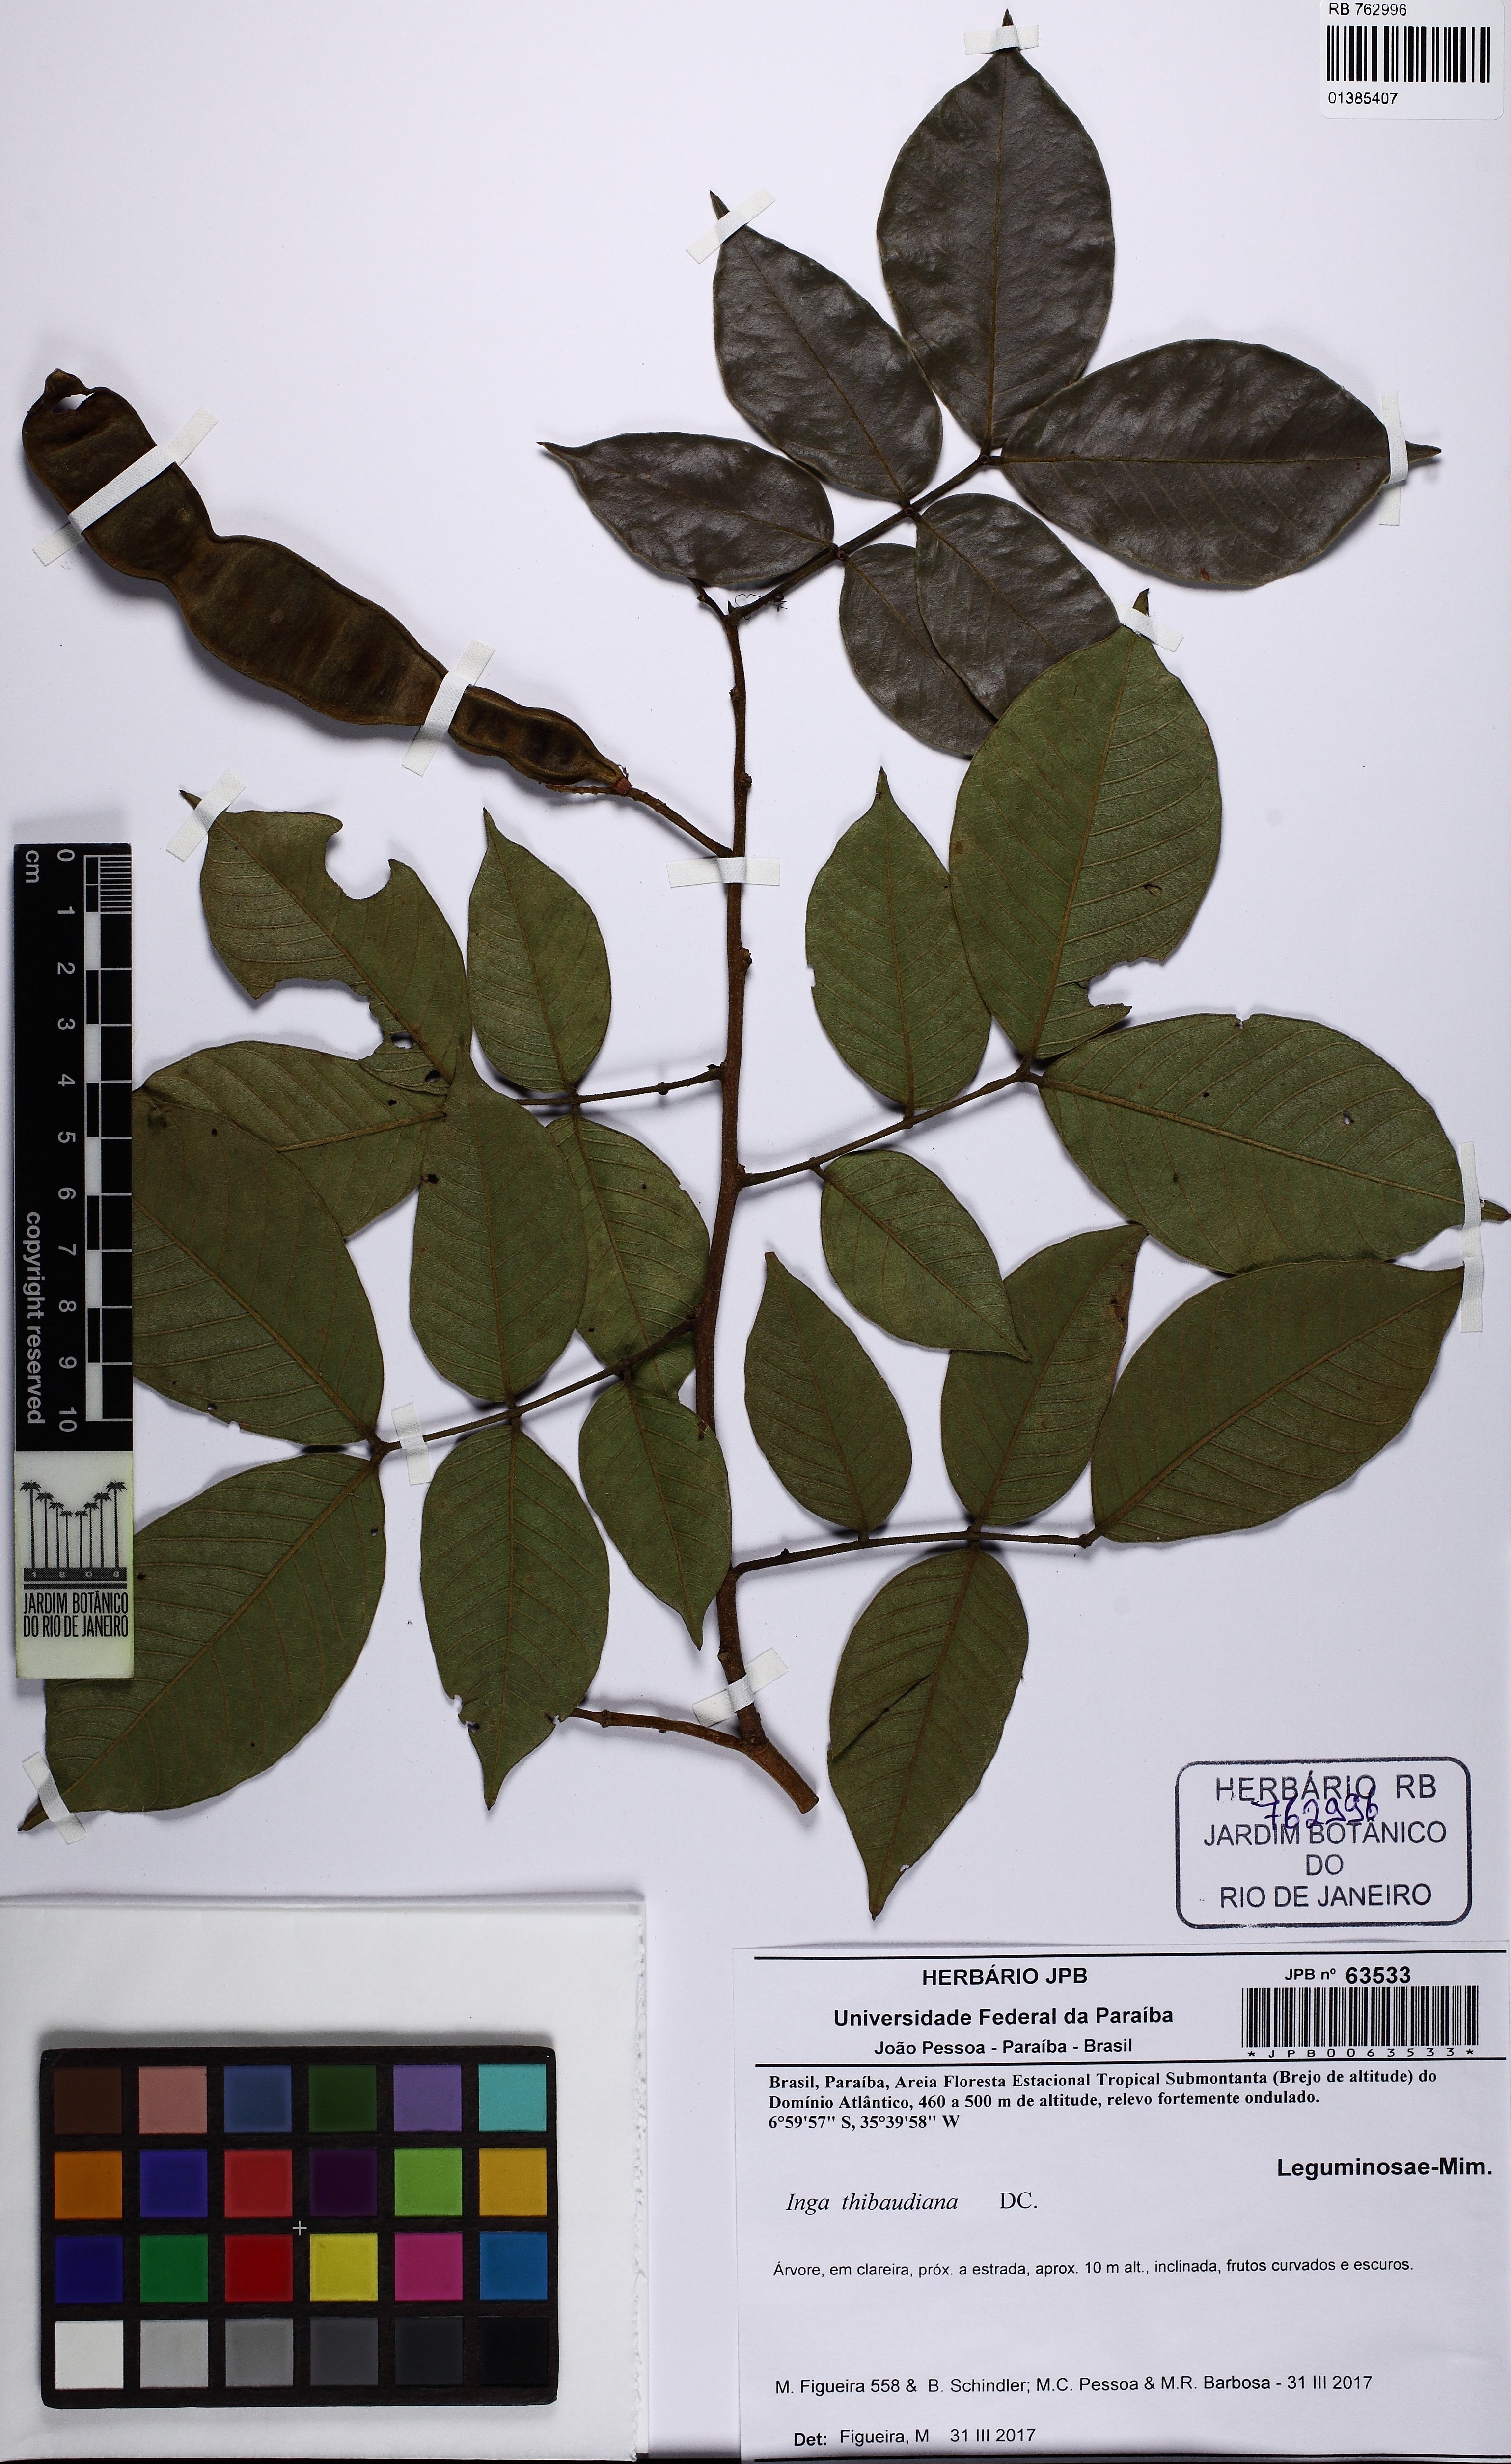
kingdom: Plantae
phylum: Tracheophyta
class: Magnoliopsida
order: Fabales
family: Fabaceae
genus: Inga
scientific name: Inga thibaudiana
